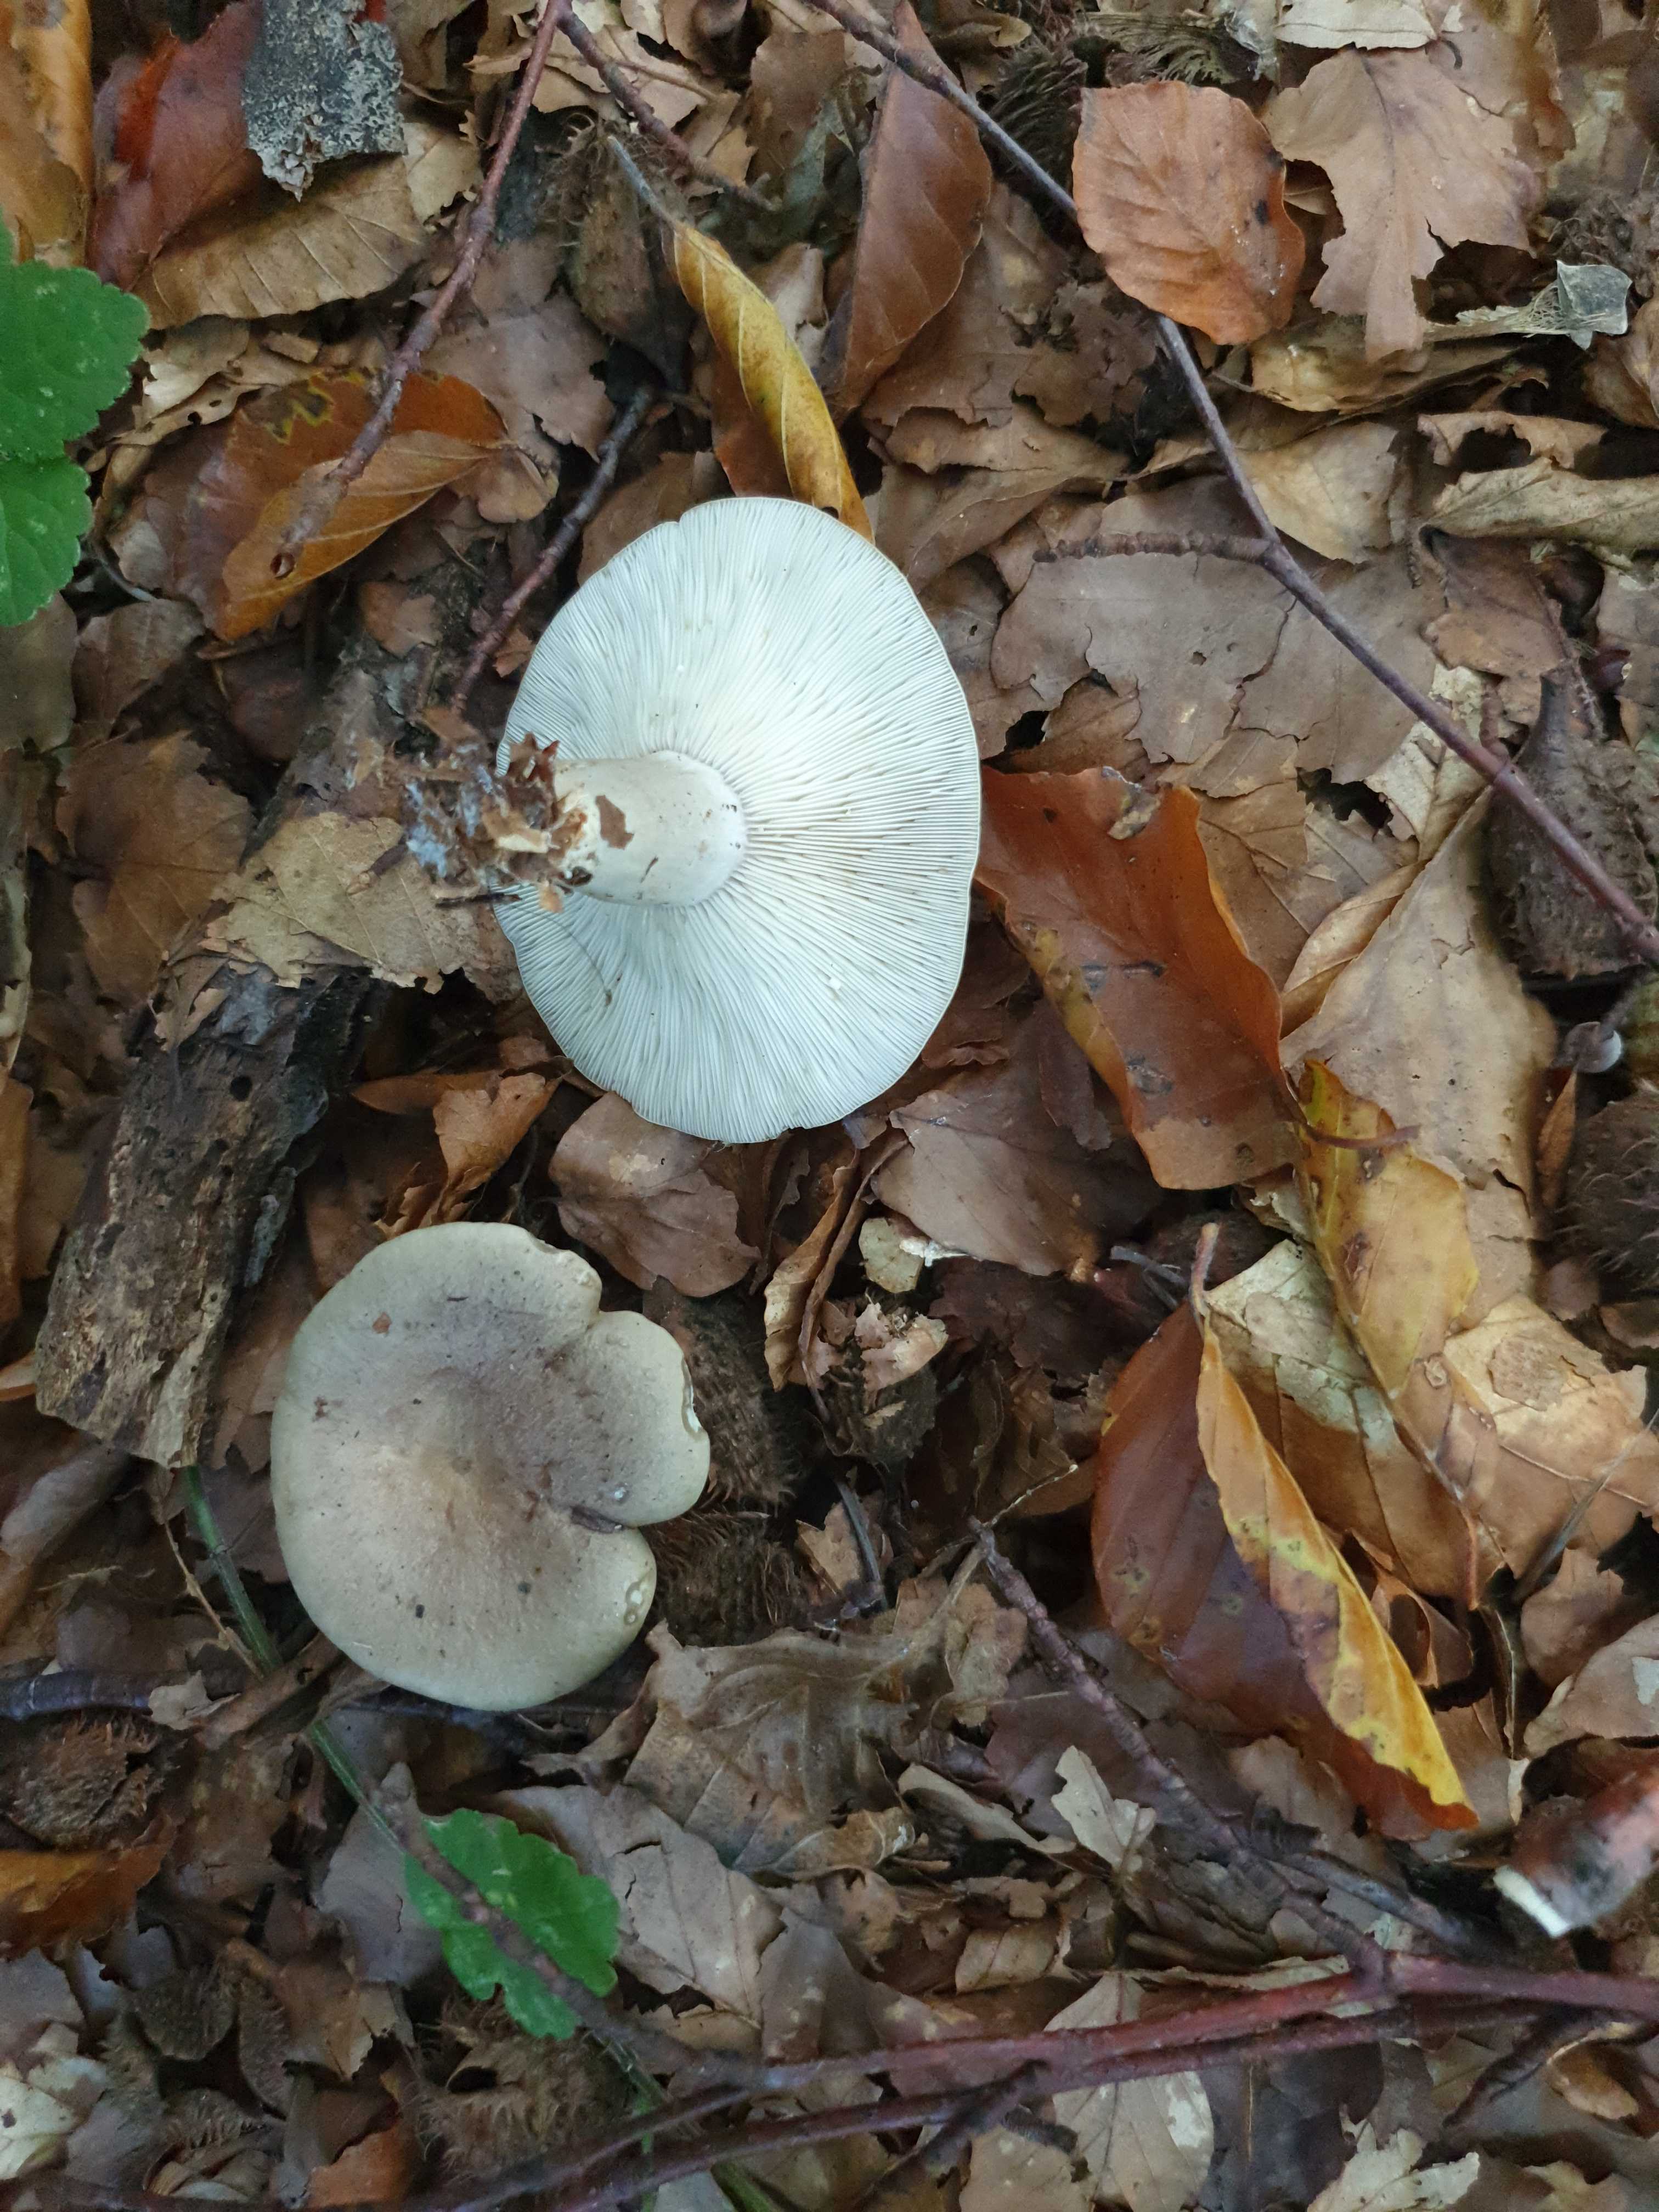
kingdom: Fungi
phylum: Basidiomycota
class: Agaricomycetes
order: Russulales
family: Russulaceae
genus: Lactarius
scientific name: Lactarius blennius
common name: dråbeplettet mælkehat
